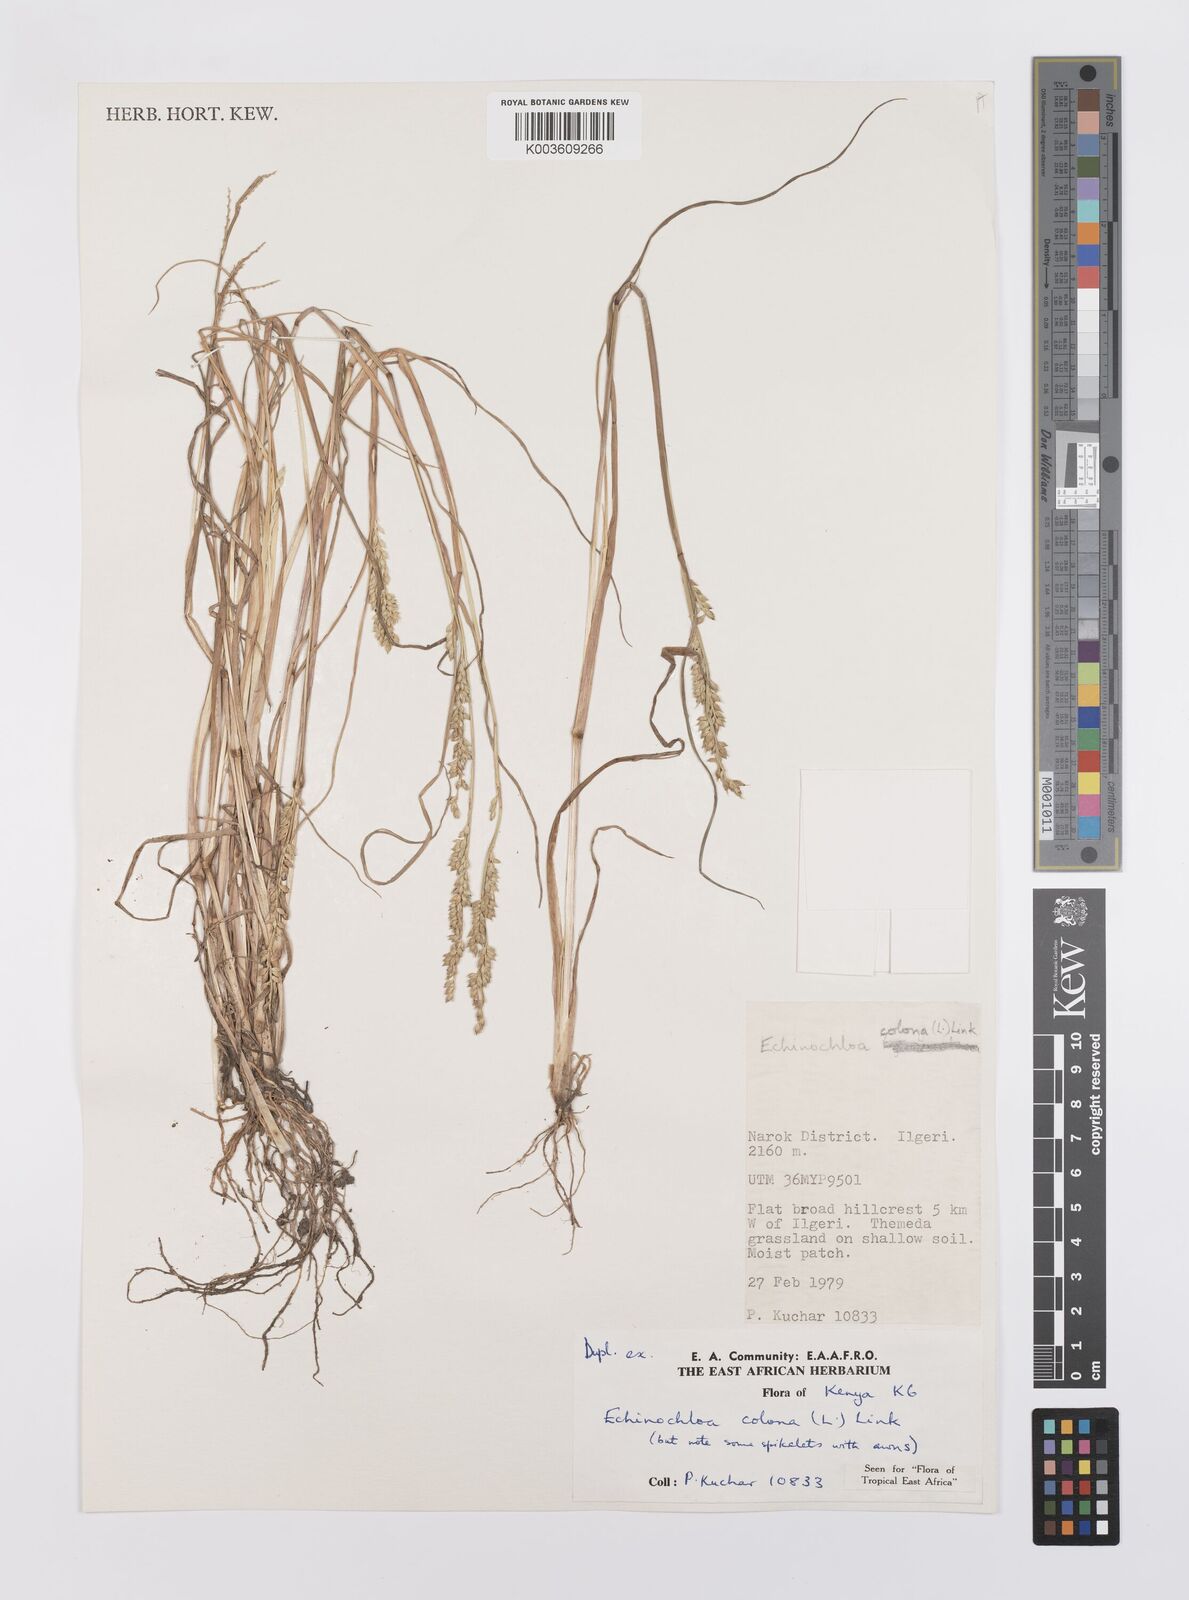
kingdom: Plantae
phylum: Tracheophyta
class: Liliopsida
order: Poales
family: Poaceae
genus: Echinochloa
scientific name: Echinochloa colonum
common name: Jungle rice
